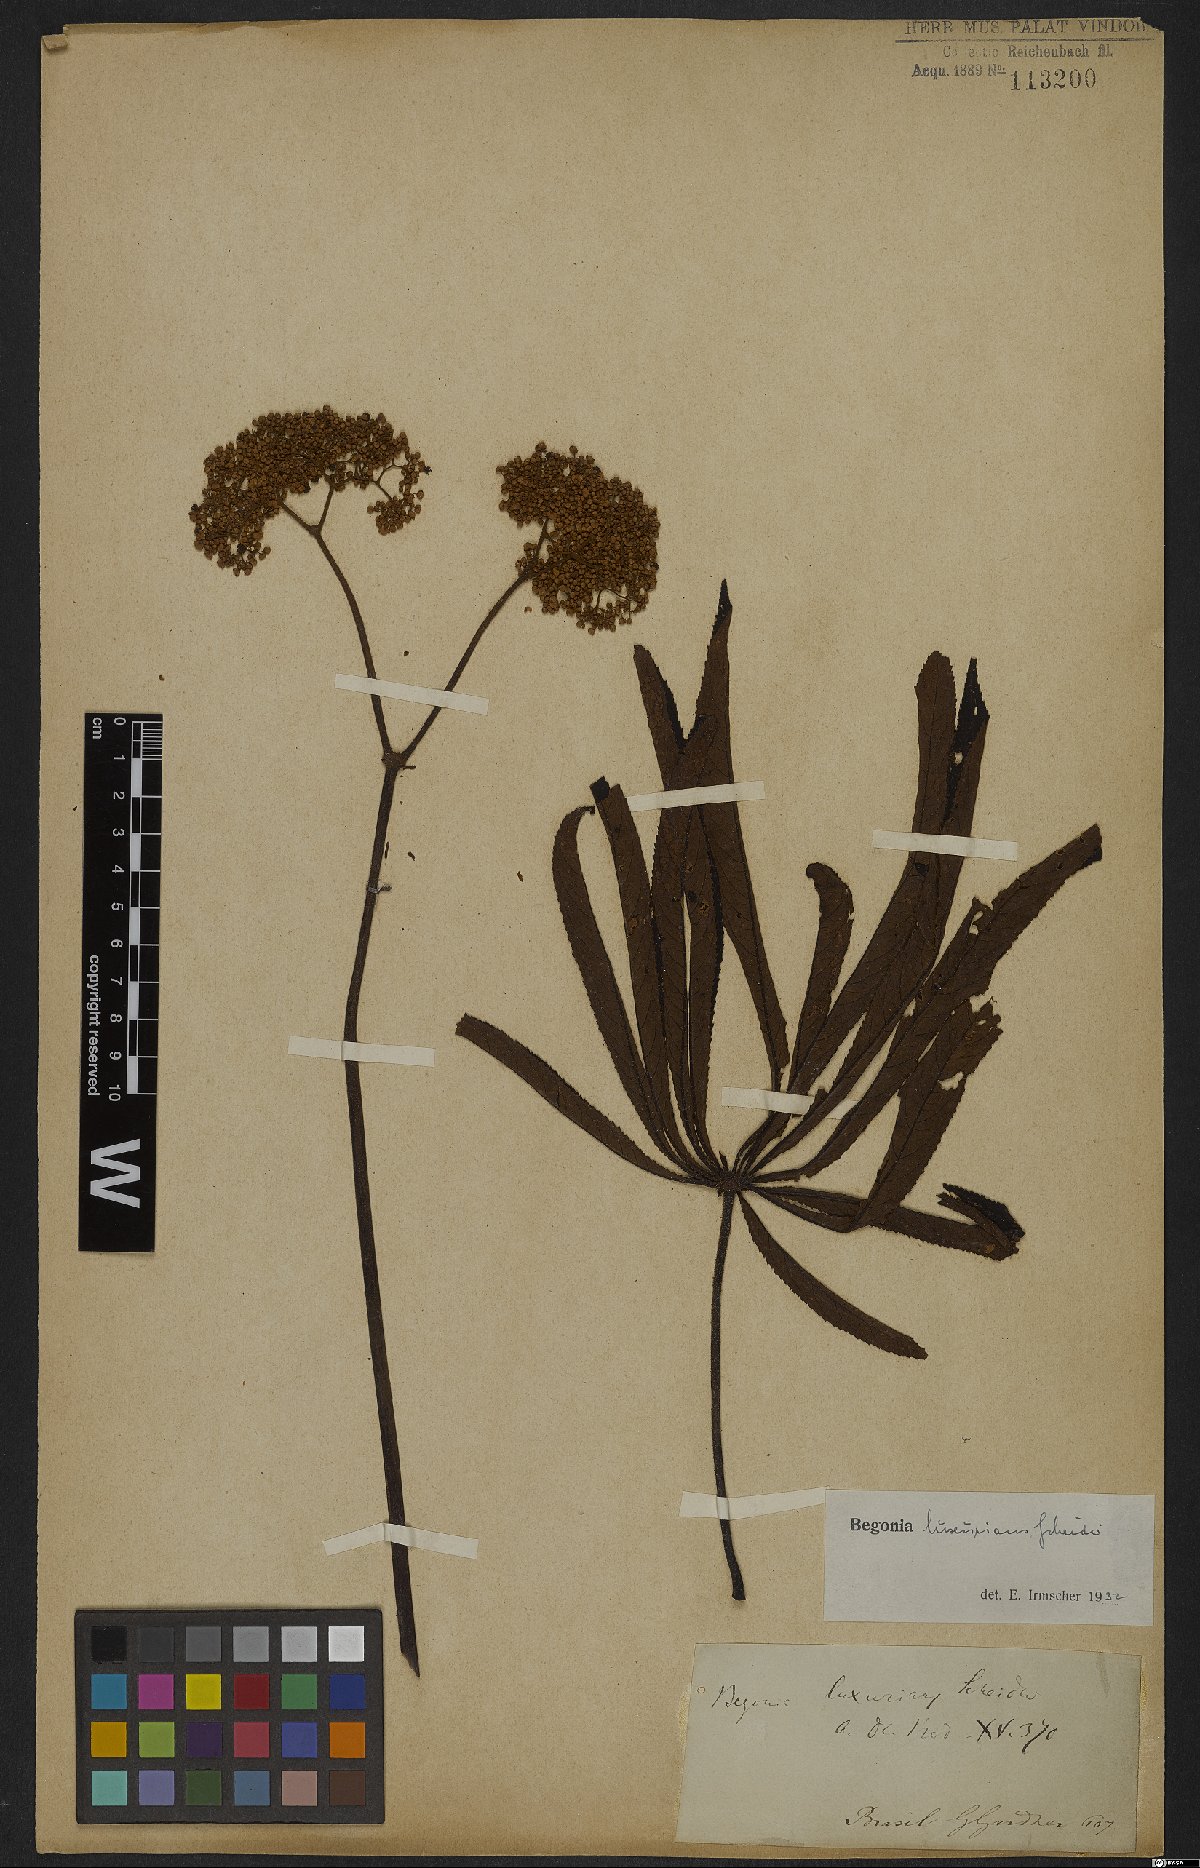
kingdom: Plantae
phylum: Tracheophyta
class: Magnoliopsida
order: Cucurbitales
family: Begoniaceae
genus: Begonia
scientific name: Begonia luxurians
